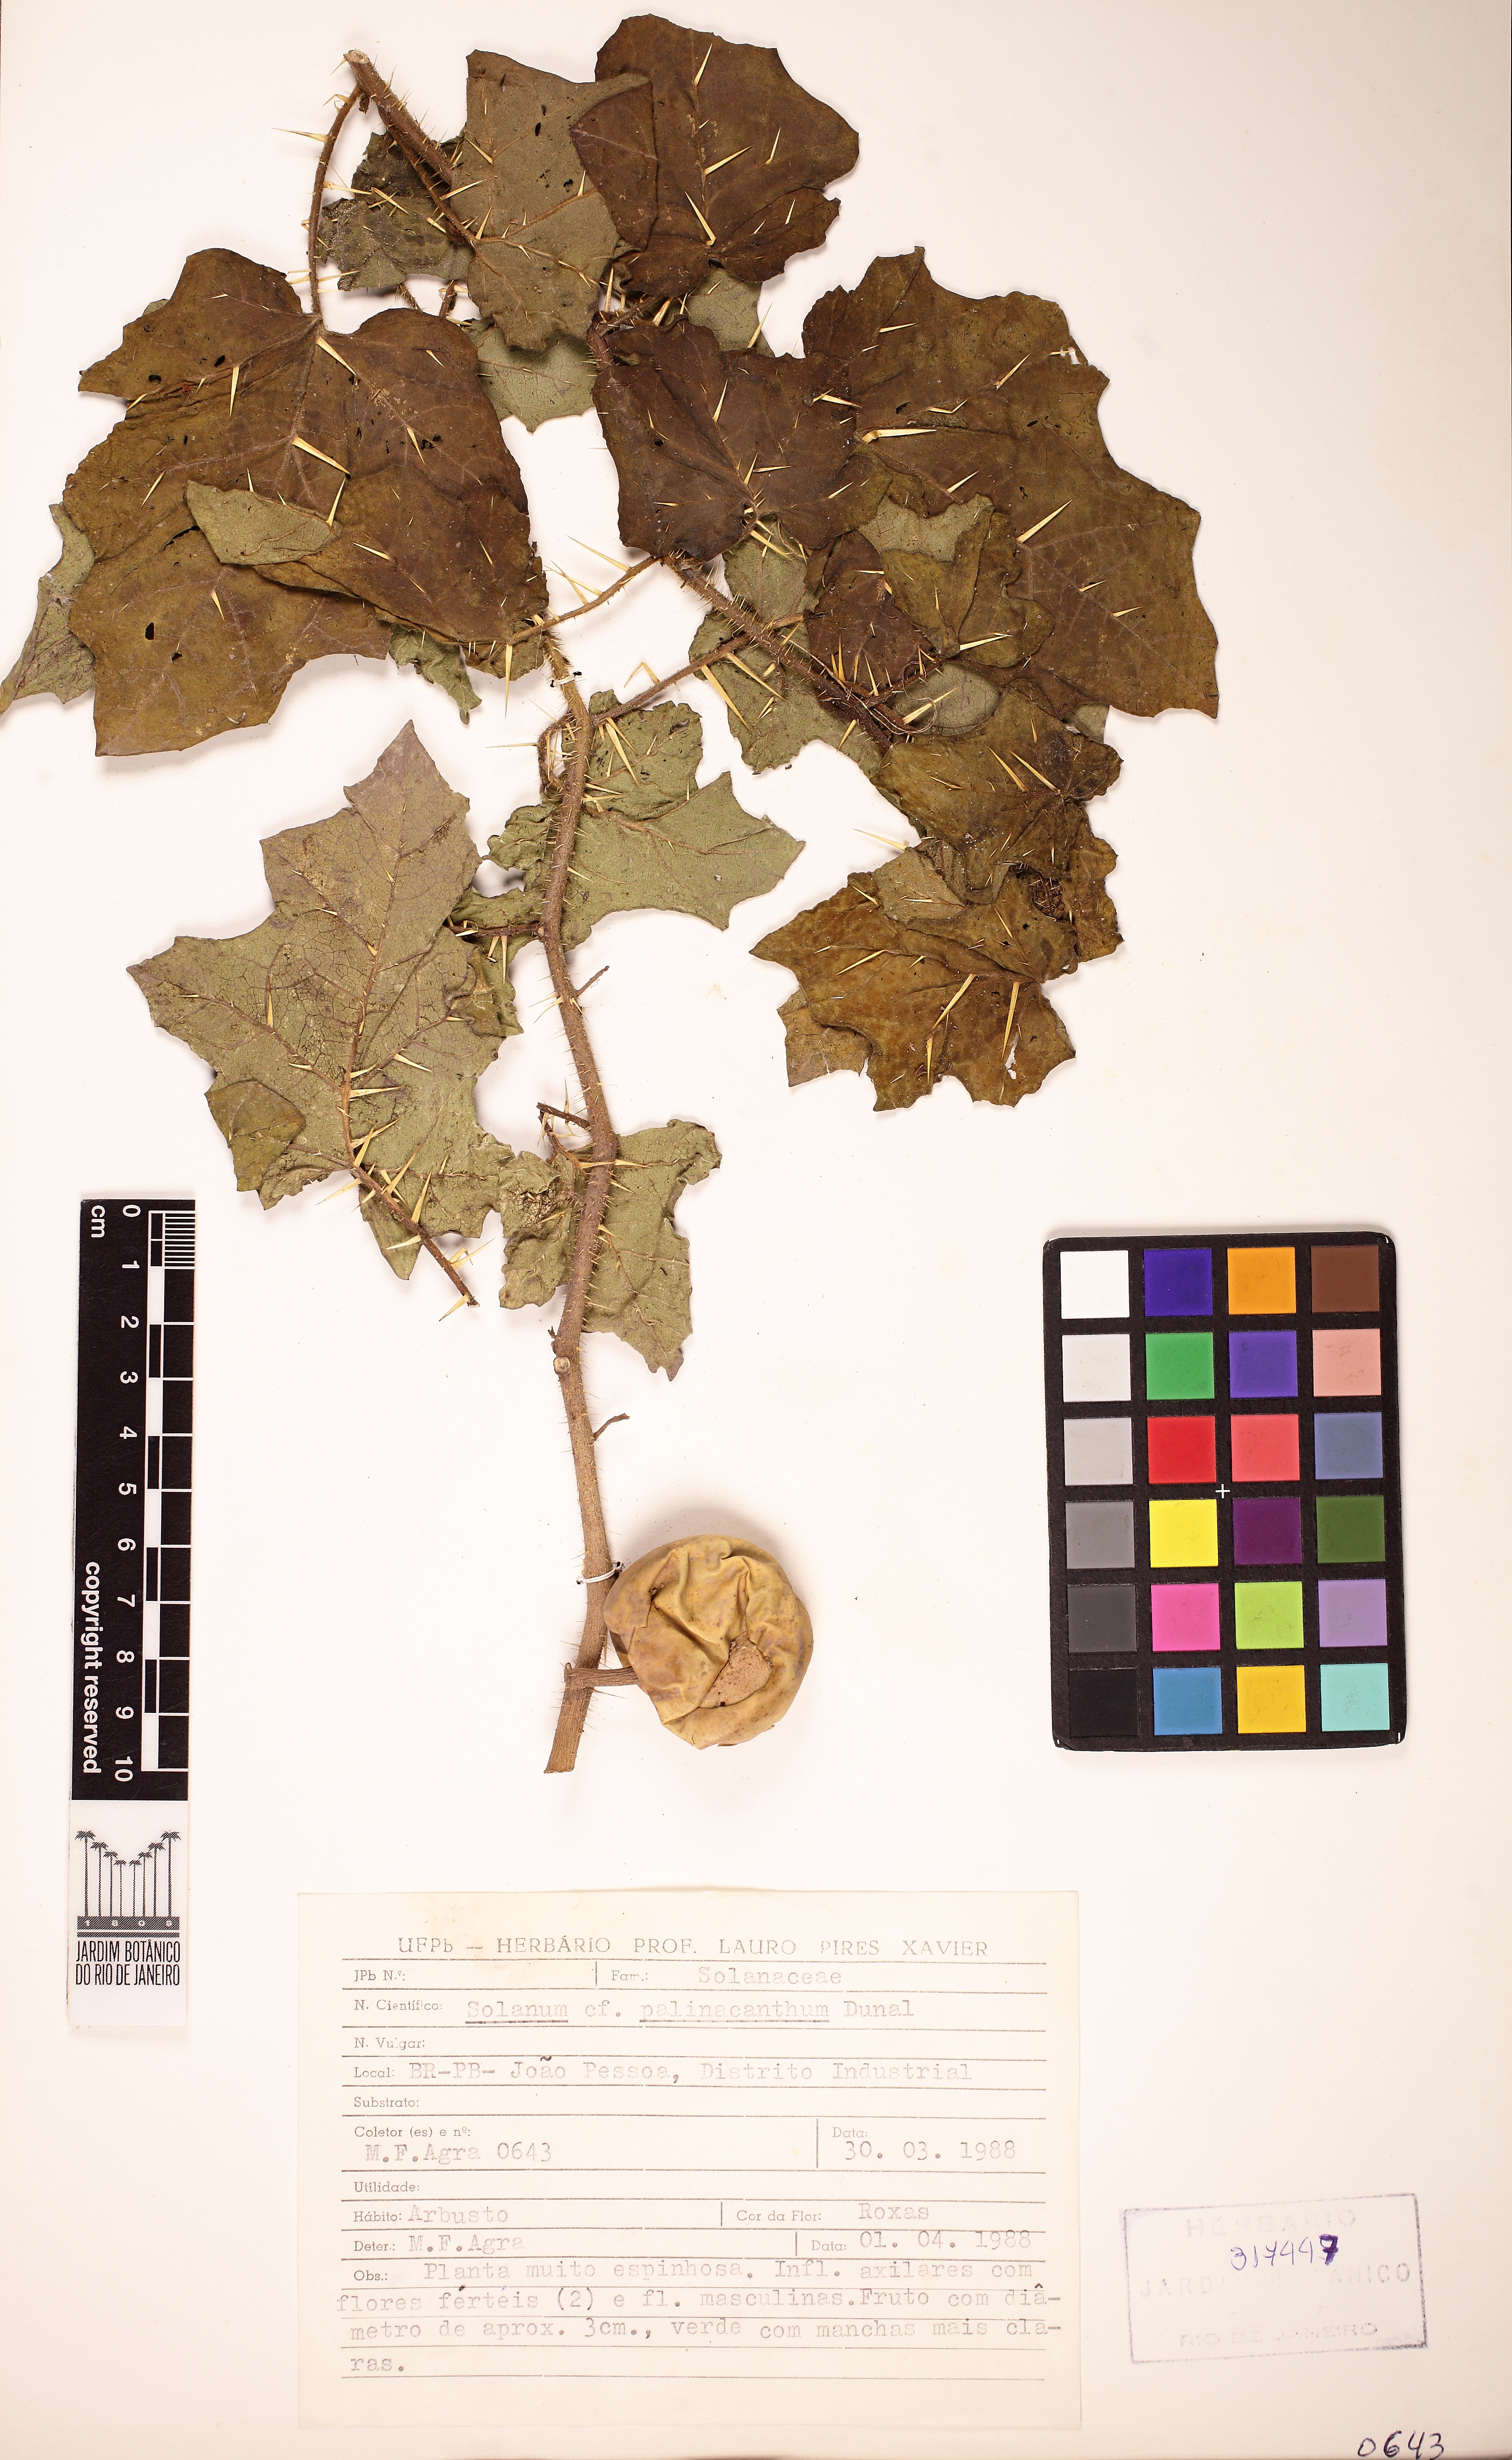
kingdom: Plantae
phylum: Tracheophyta
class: Magnoliopsida
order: Solanales
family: Solanaceae
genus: Solanum
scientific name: Solanum palinacanthum
